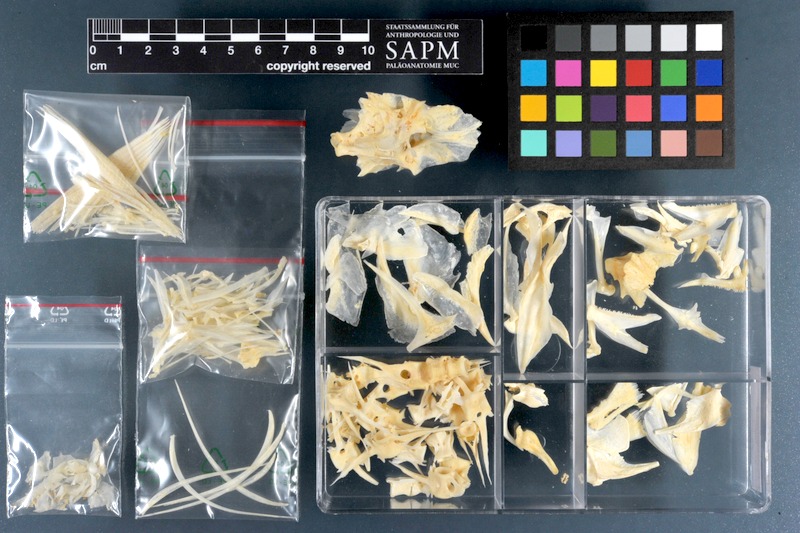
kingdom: Animalia
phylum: Chordata
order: Perciformes
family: Carangidae
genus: Pseudocaranx
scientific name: Pseudocaranx dentex
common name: White trevally
